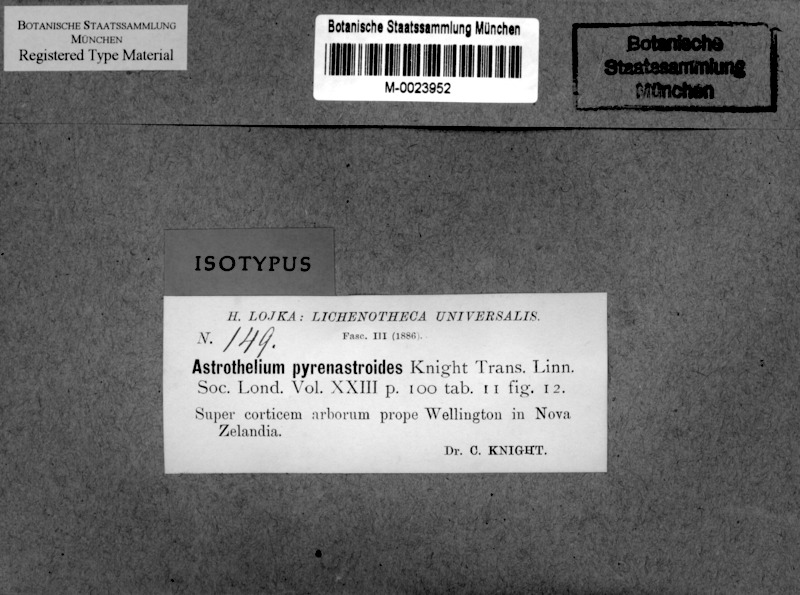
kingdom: Fungi
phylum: Ascomycota
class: Eurotiomycetes
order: Pyrenulales
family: Pyrenulaceae
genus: Pyrenula
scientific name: Pyrenula pyrenastroides
